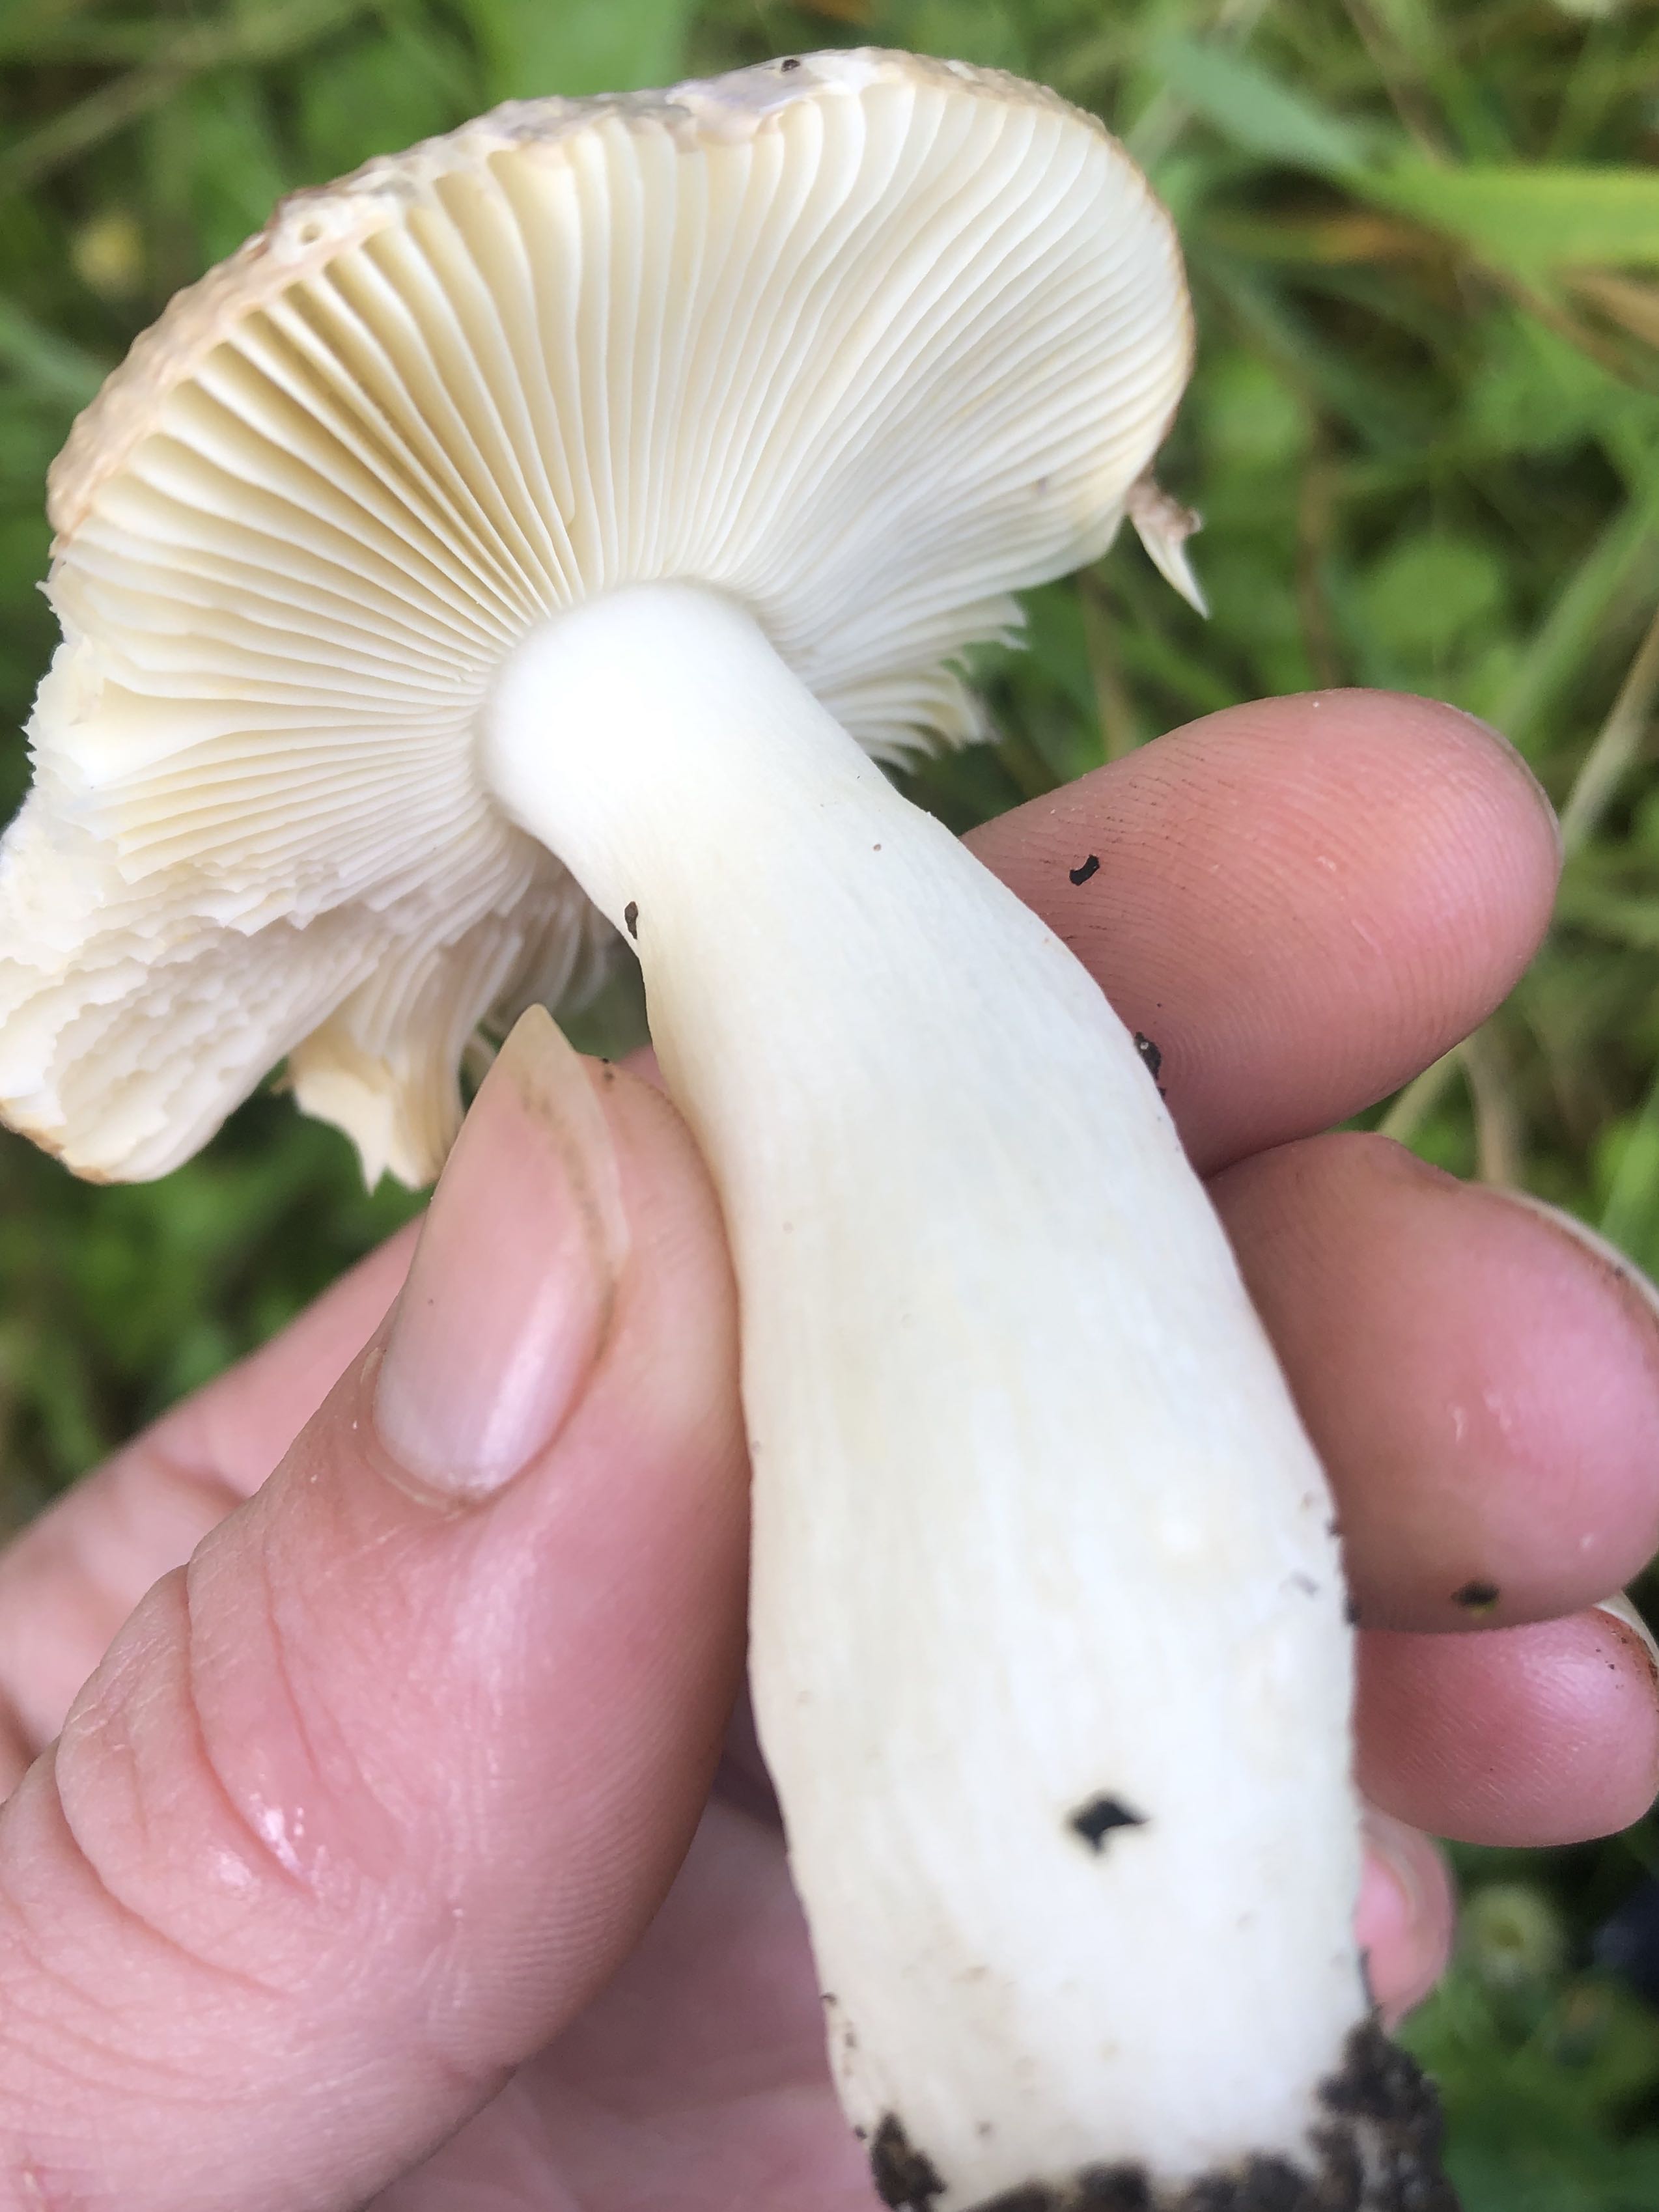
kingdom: Fungi
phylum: Basidiomycota
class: Agaricomycetes
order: Russulales
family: Russulaceae
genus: Russula
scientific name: Russula nauseosa
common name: spinkel skørhat
